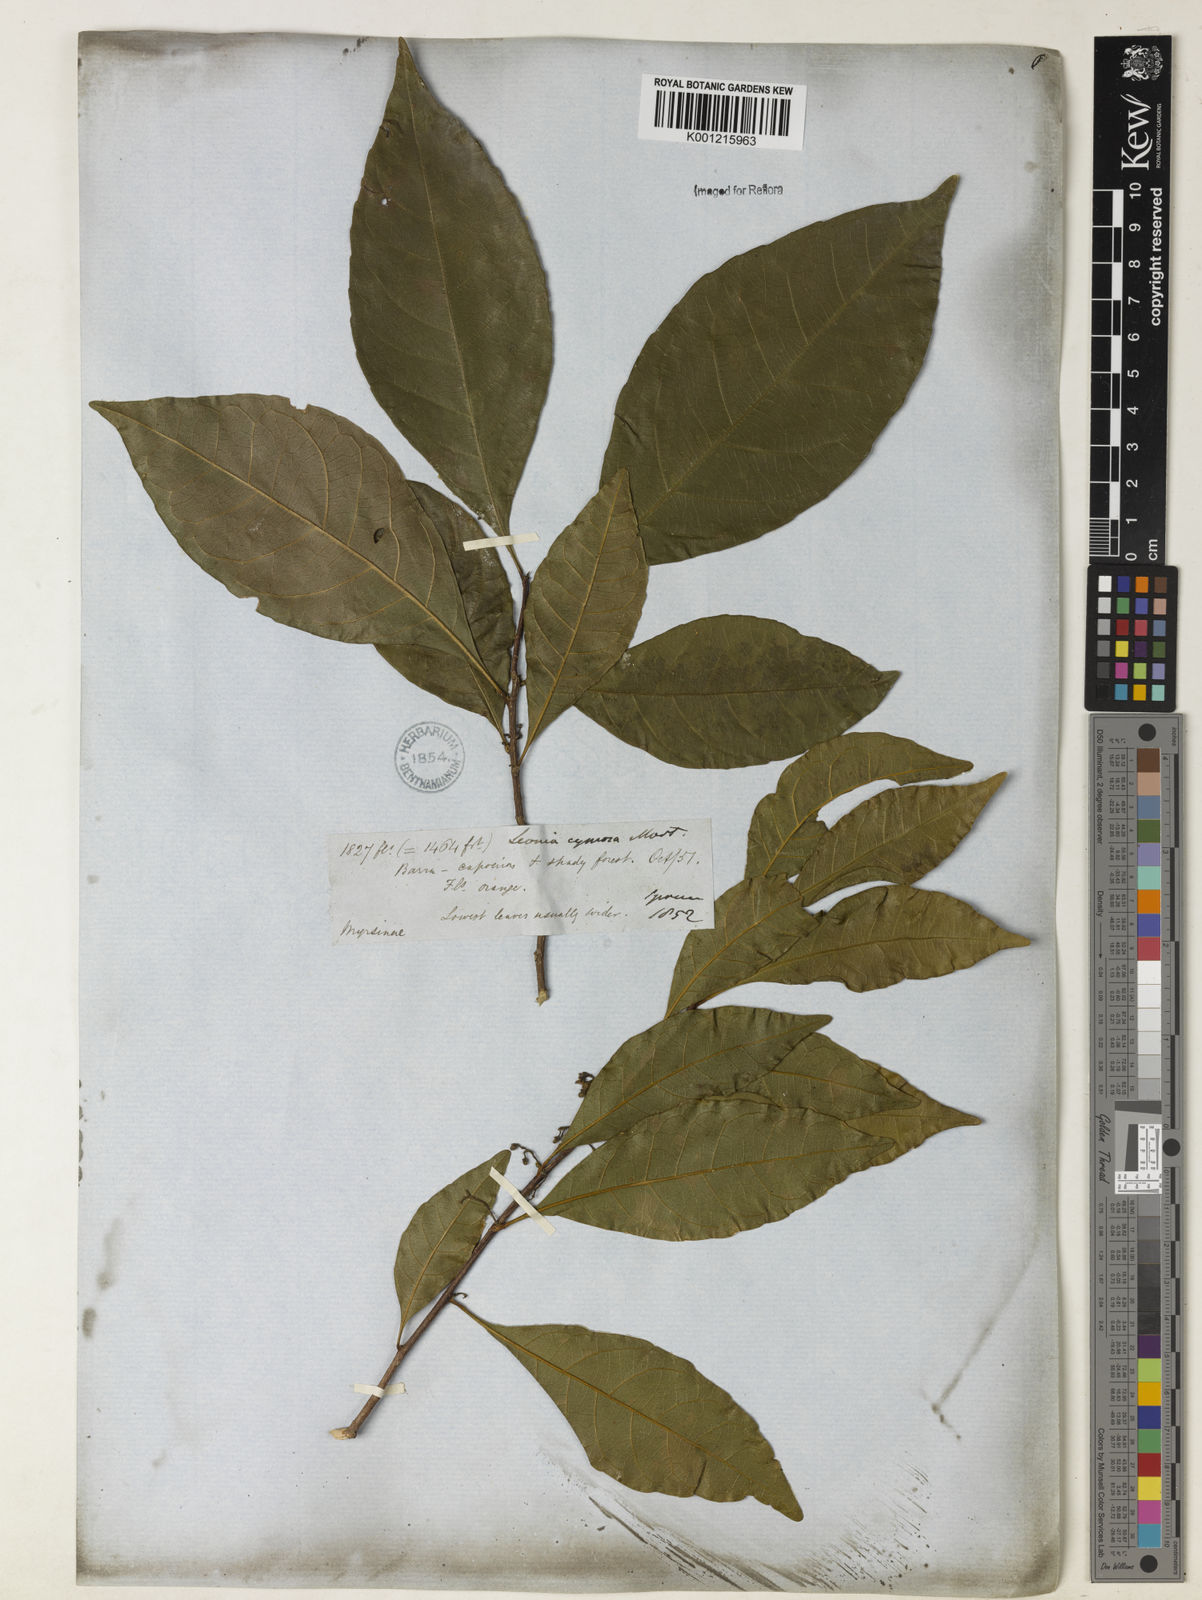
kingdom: Plantae
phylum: Tracheophyta
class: Magnoliopsida
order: Malpighiales
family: Violaceae
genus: Leonia
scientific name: Leonia cymosa
